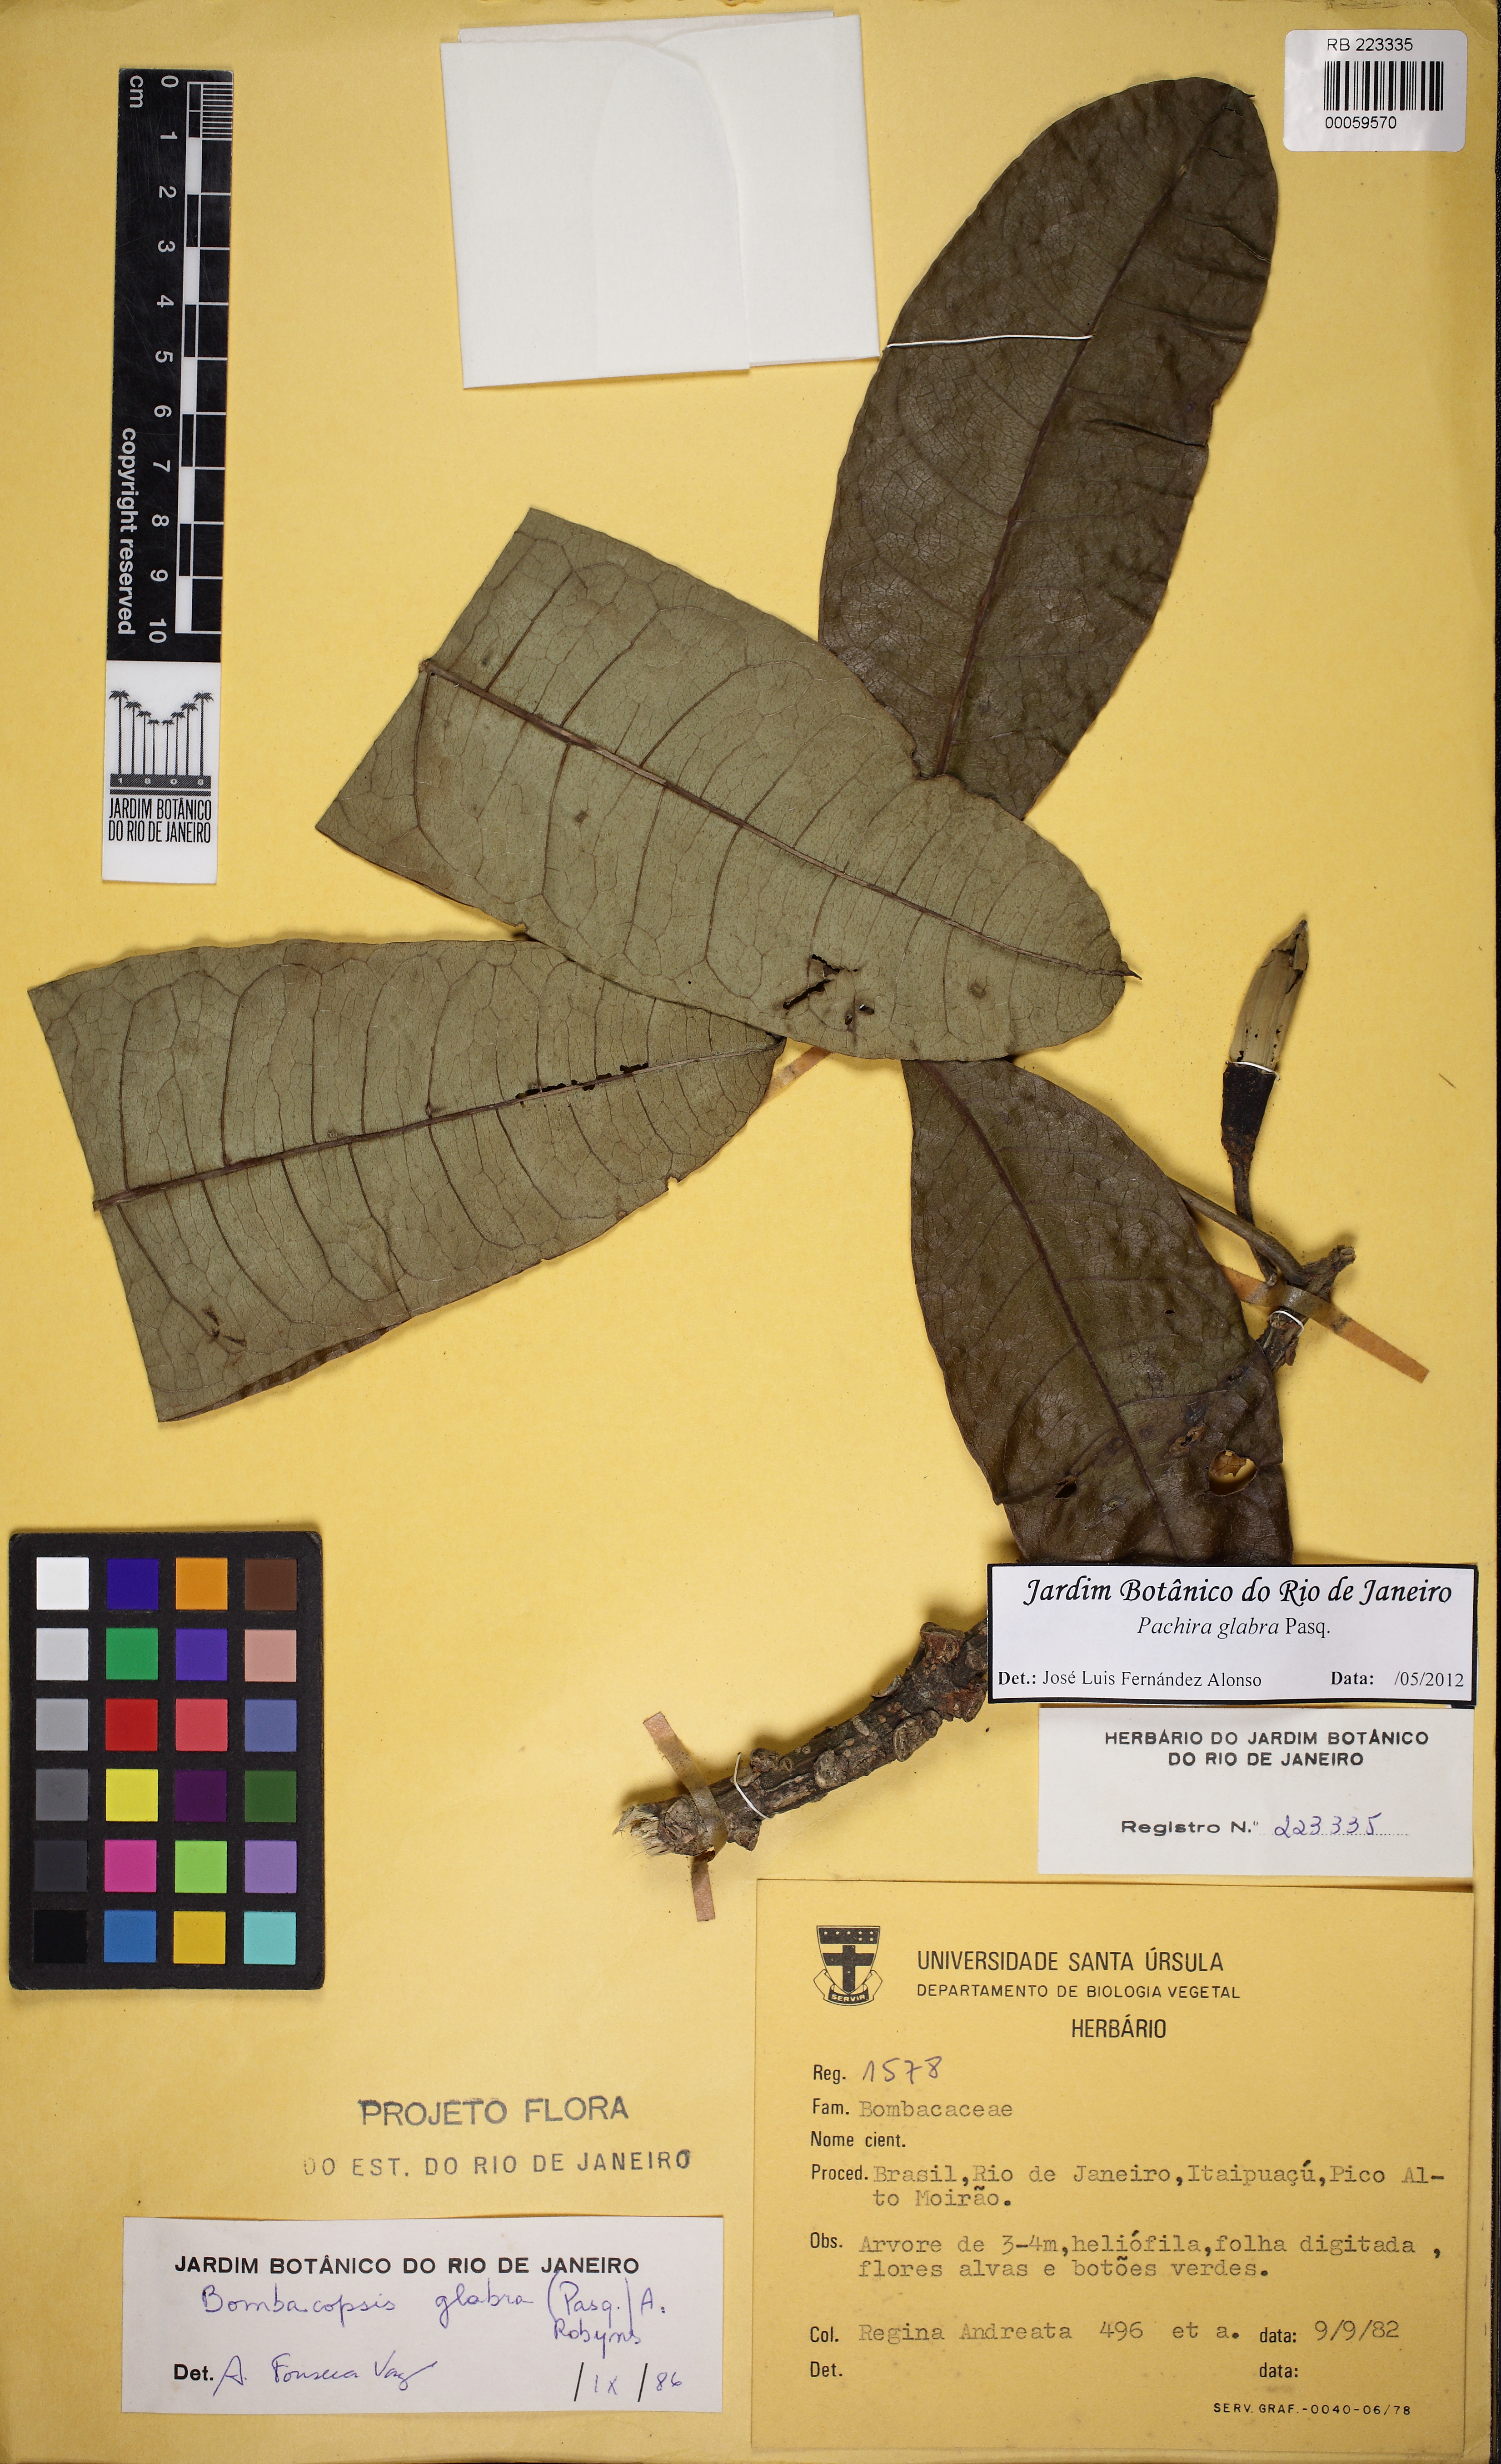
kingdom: Plantae
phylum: Tracheophyta
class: Magnoliopsida
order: Malvales
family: Malvaceae
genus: Pachira
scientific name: Pachira glabra
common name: Moneytree
